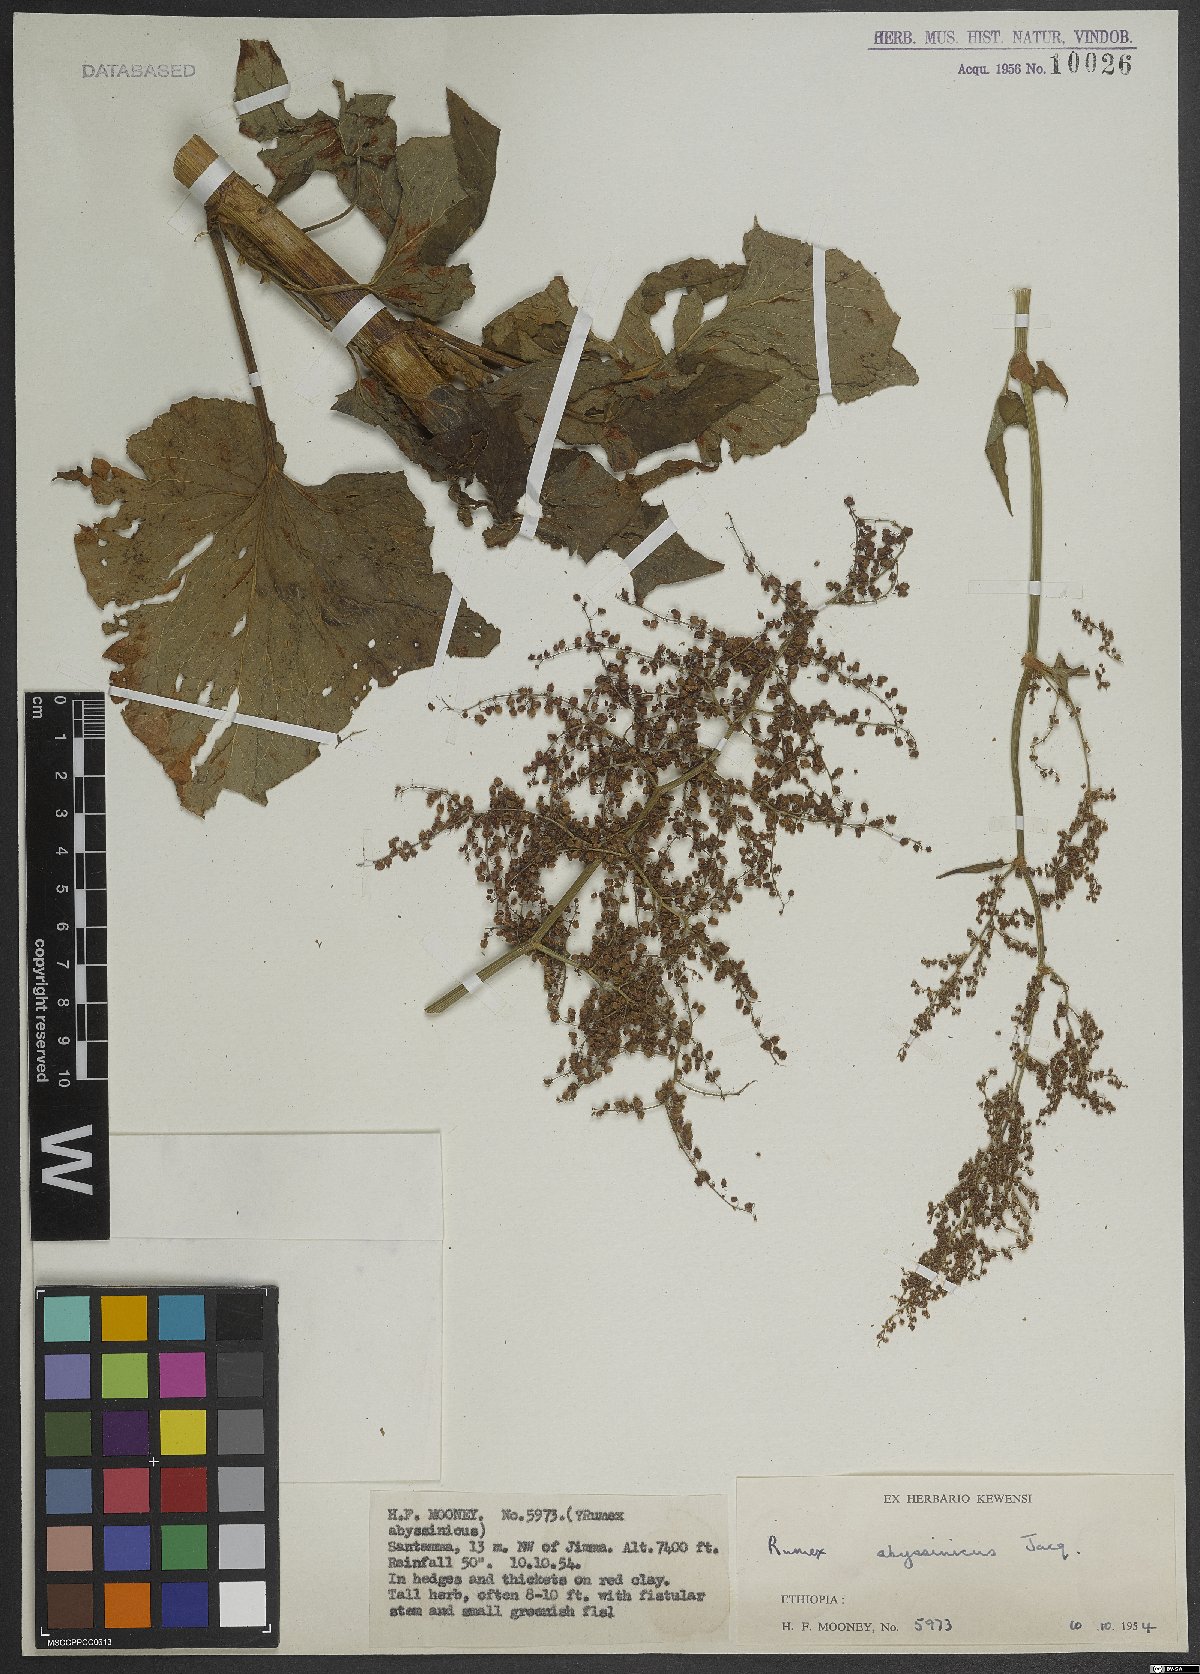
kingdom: Plantae
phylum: Tracheophyta
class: Magnoliopsida
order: Caryophyllales
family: Polygonaceae
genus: Rumex
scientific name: Rumex abyssinicus
